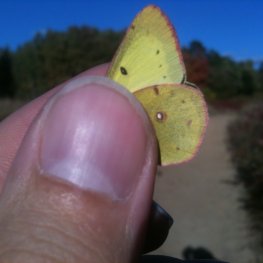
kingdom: Animalia
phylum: Arthropoda
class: Insecta
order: Lepidoptera
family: Pieridae
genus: Colias
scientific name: Colias philodice
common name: Clouded Sulphur
